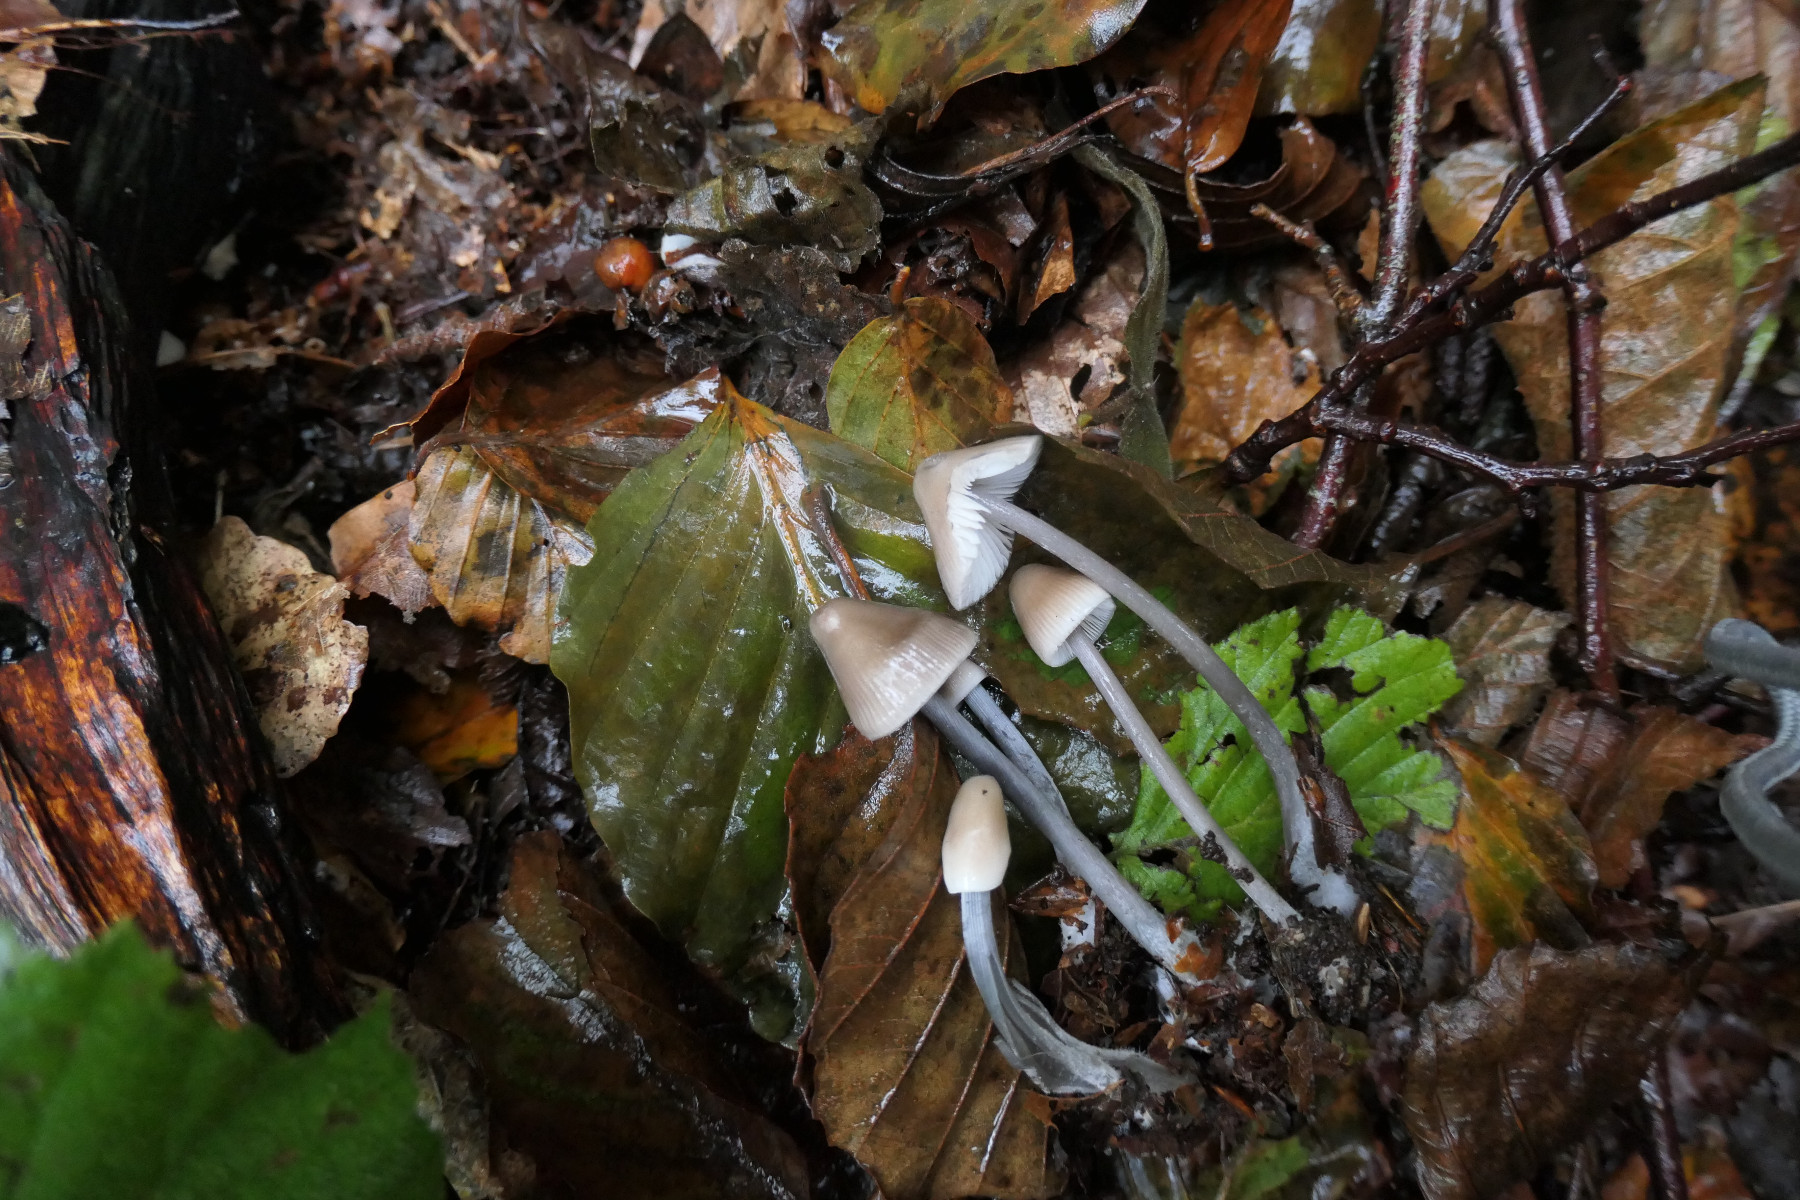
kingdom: Fungi
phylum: Basidiomycota
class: Agaricomycetes
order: Agaricales
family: Mycenaceae
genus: Mycena
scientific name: Mycena polygramma
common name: mangestribet huesvamp
